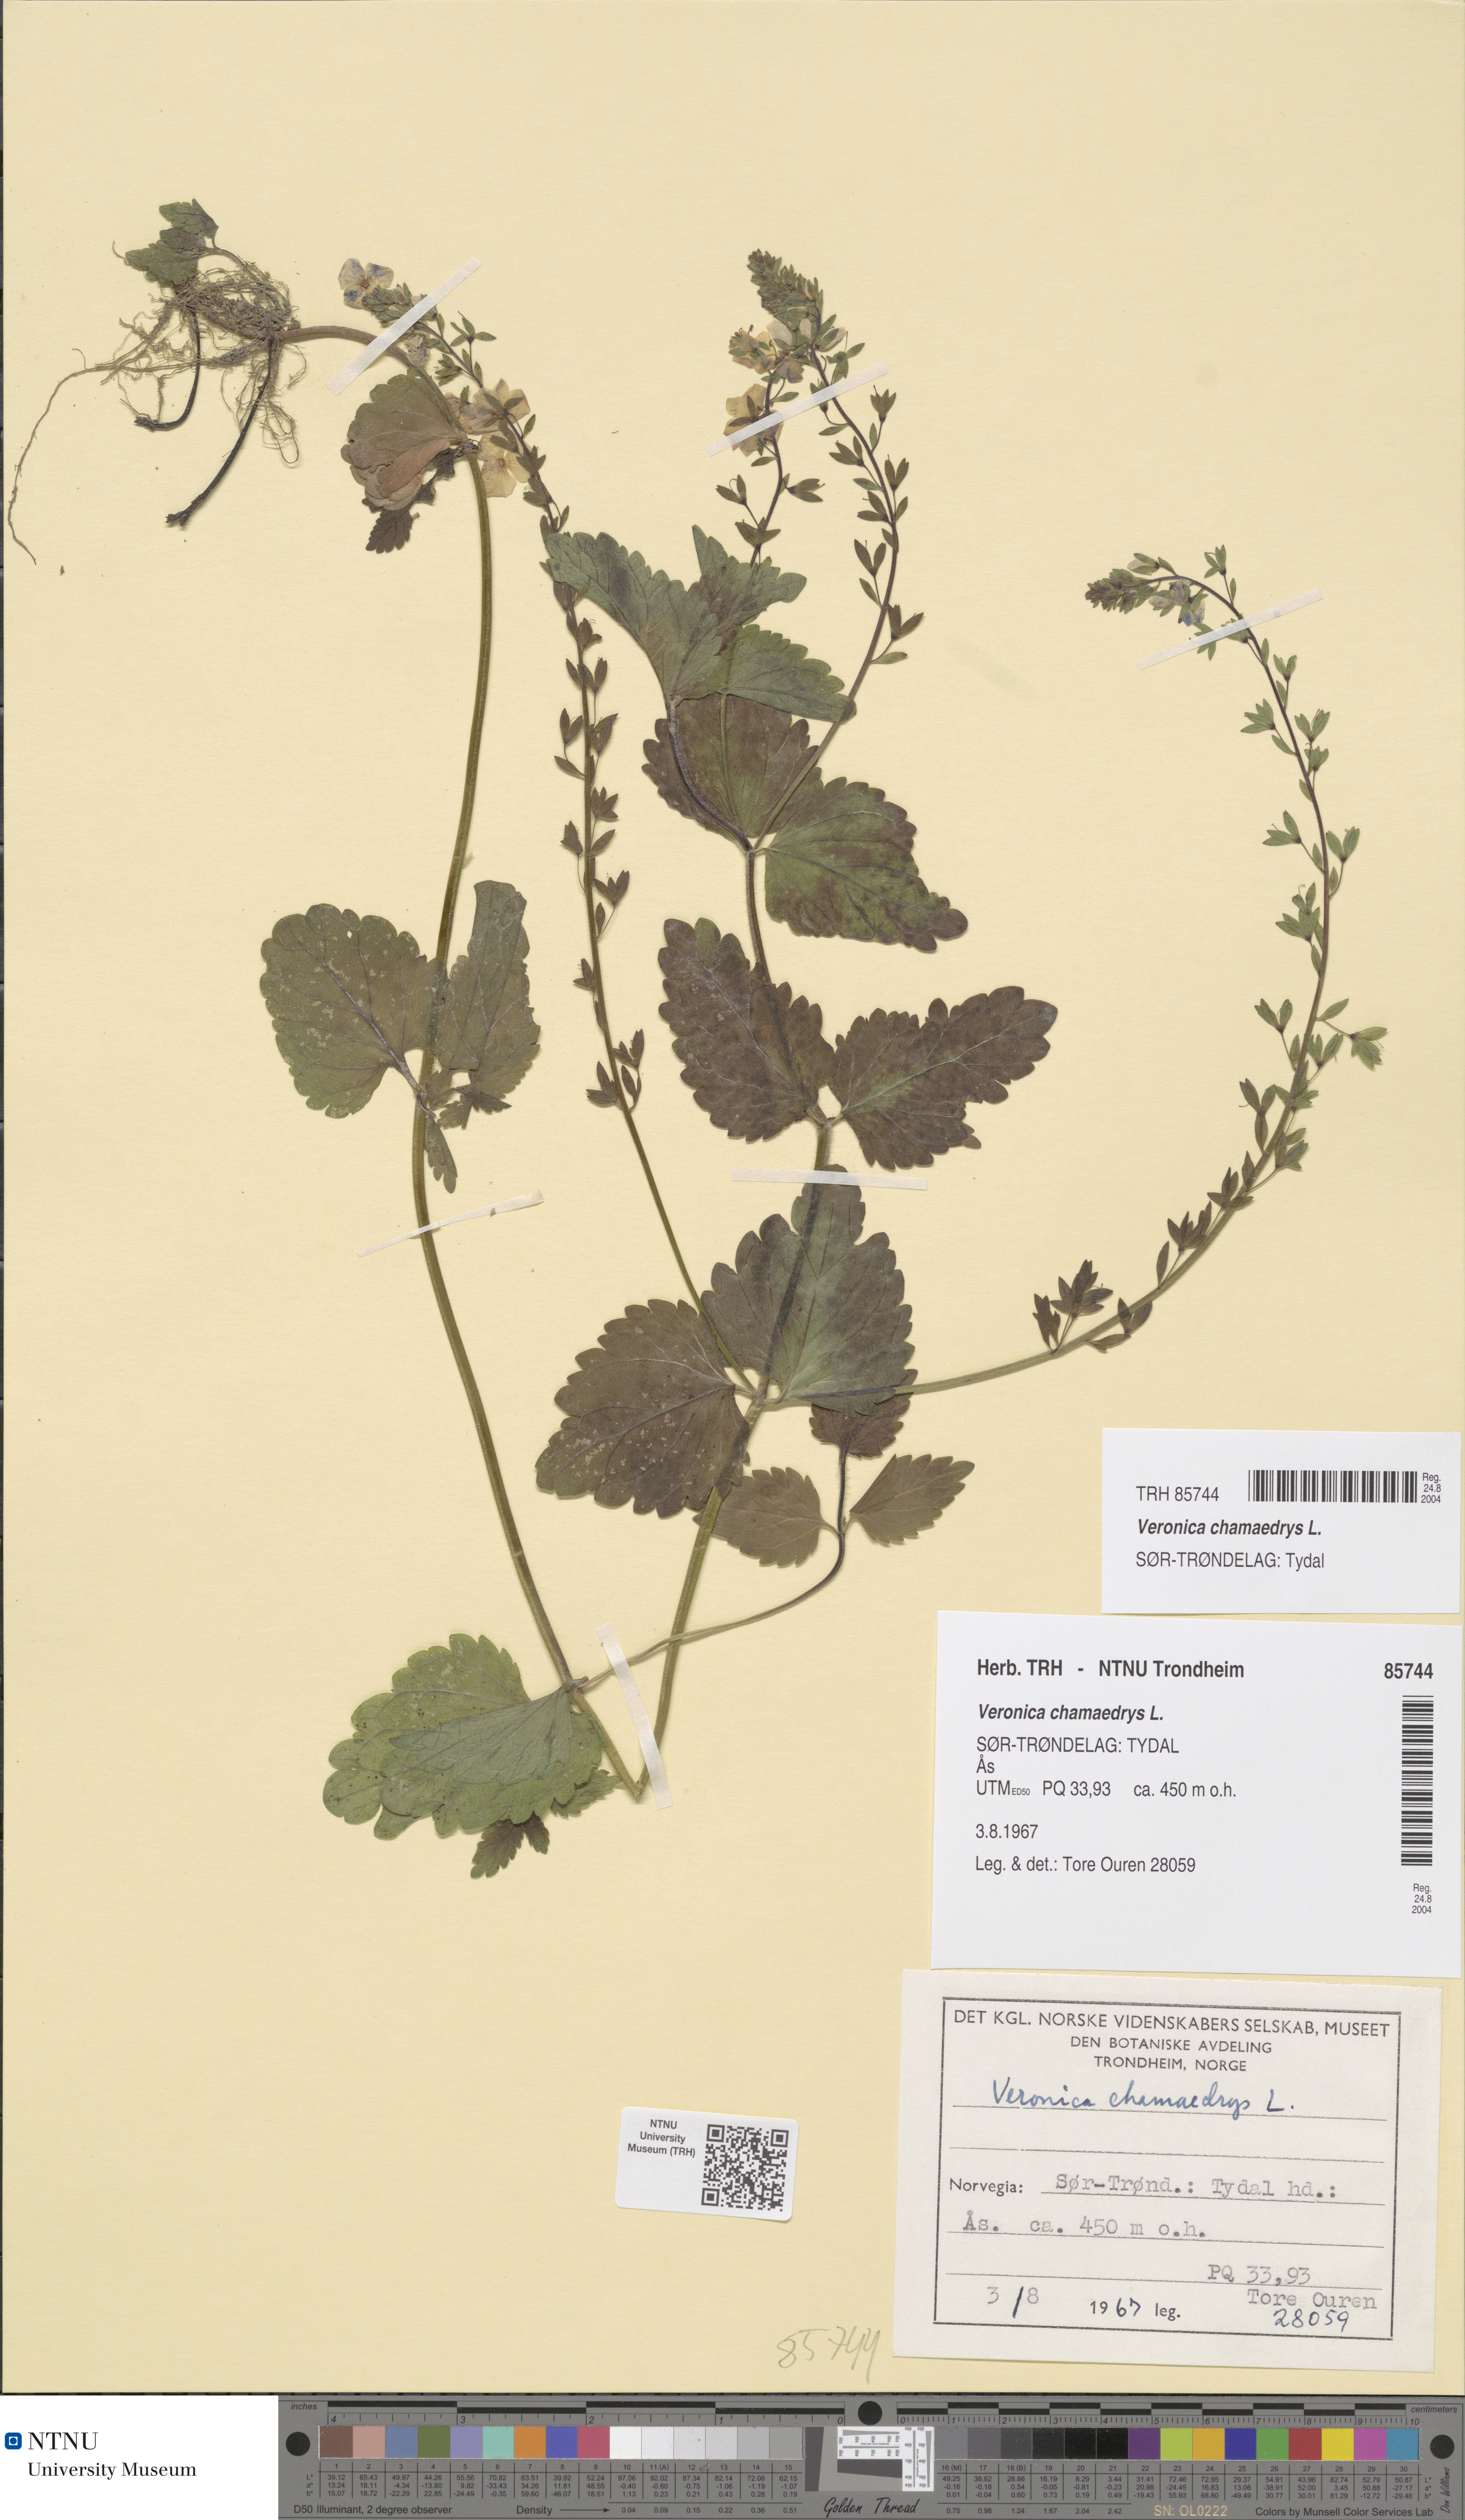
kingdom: Plantae
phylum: Tracheophyta
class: Magnoliopsida
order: Lamiales
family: Plantaginaceae
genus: Veronica
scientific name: Veronica chamaedrys
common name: Germander speedwell
